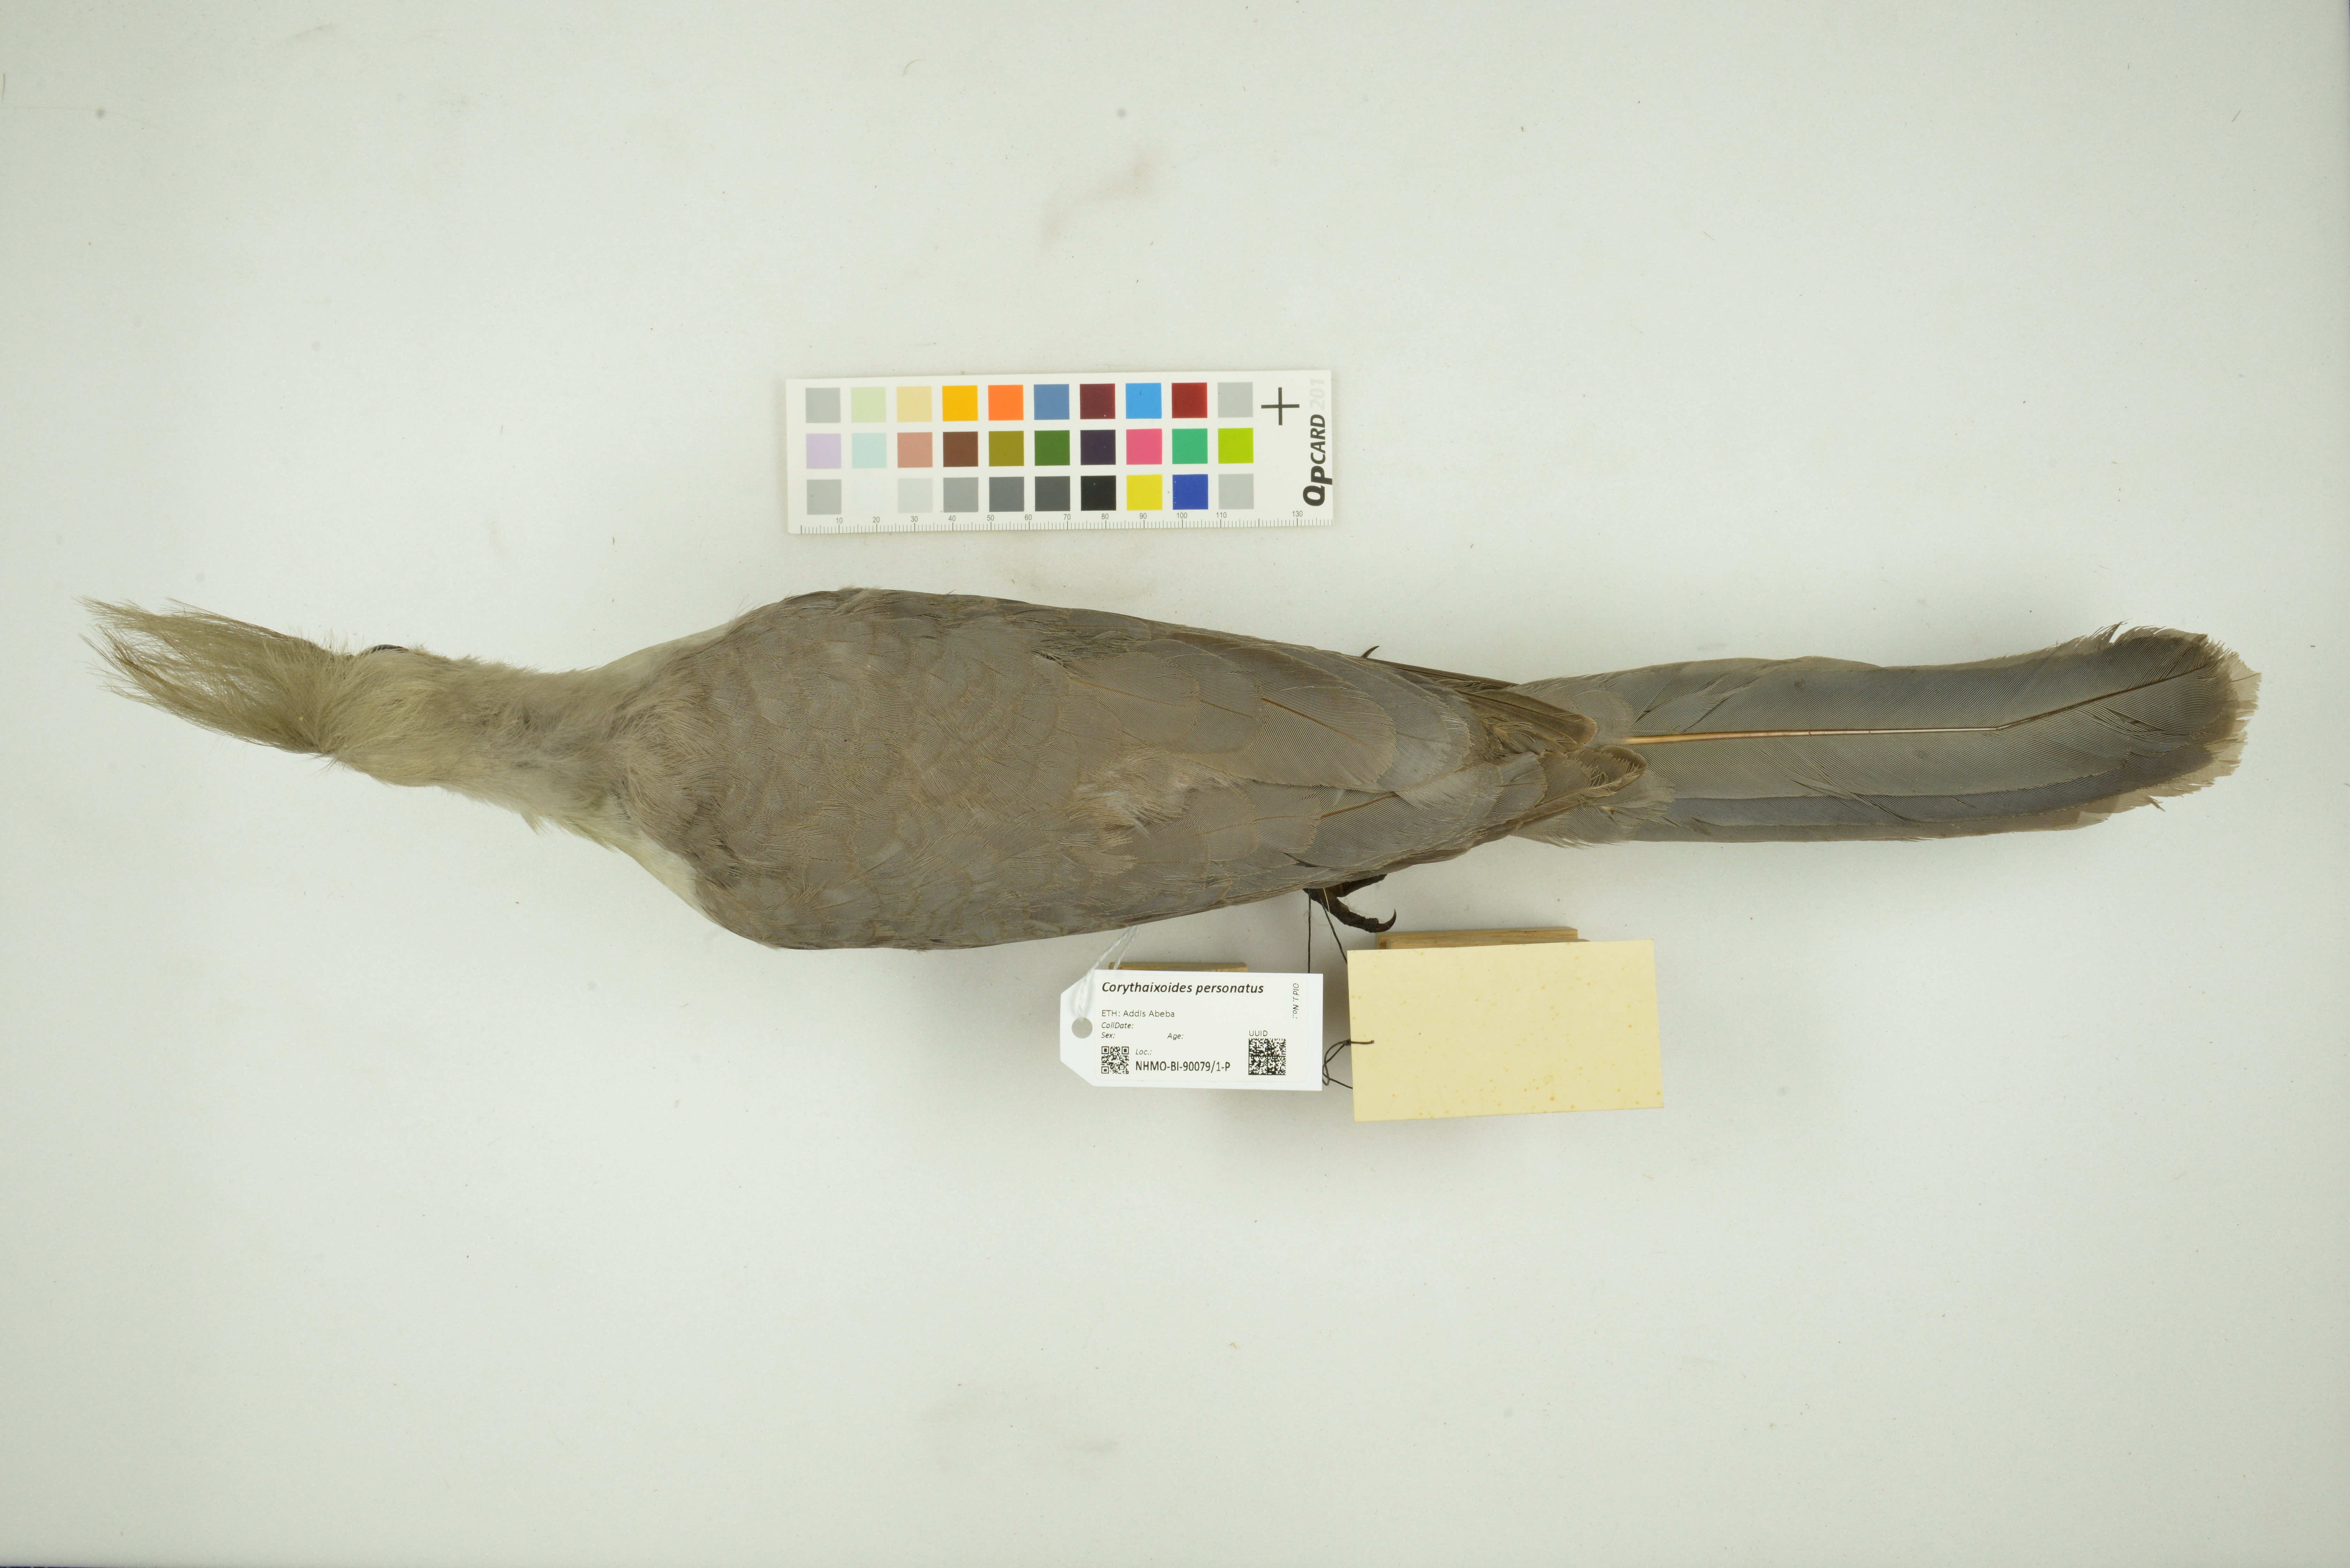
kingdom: Animalia
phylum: Chordata
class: Aves
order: Musophagiformes
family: Musophagidae
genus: Corythaixoides
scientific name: Corythaixoides personatus
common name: Bare-faced go-away-bird
